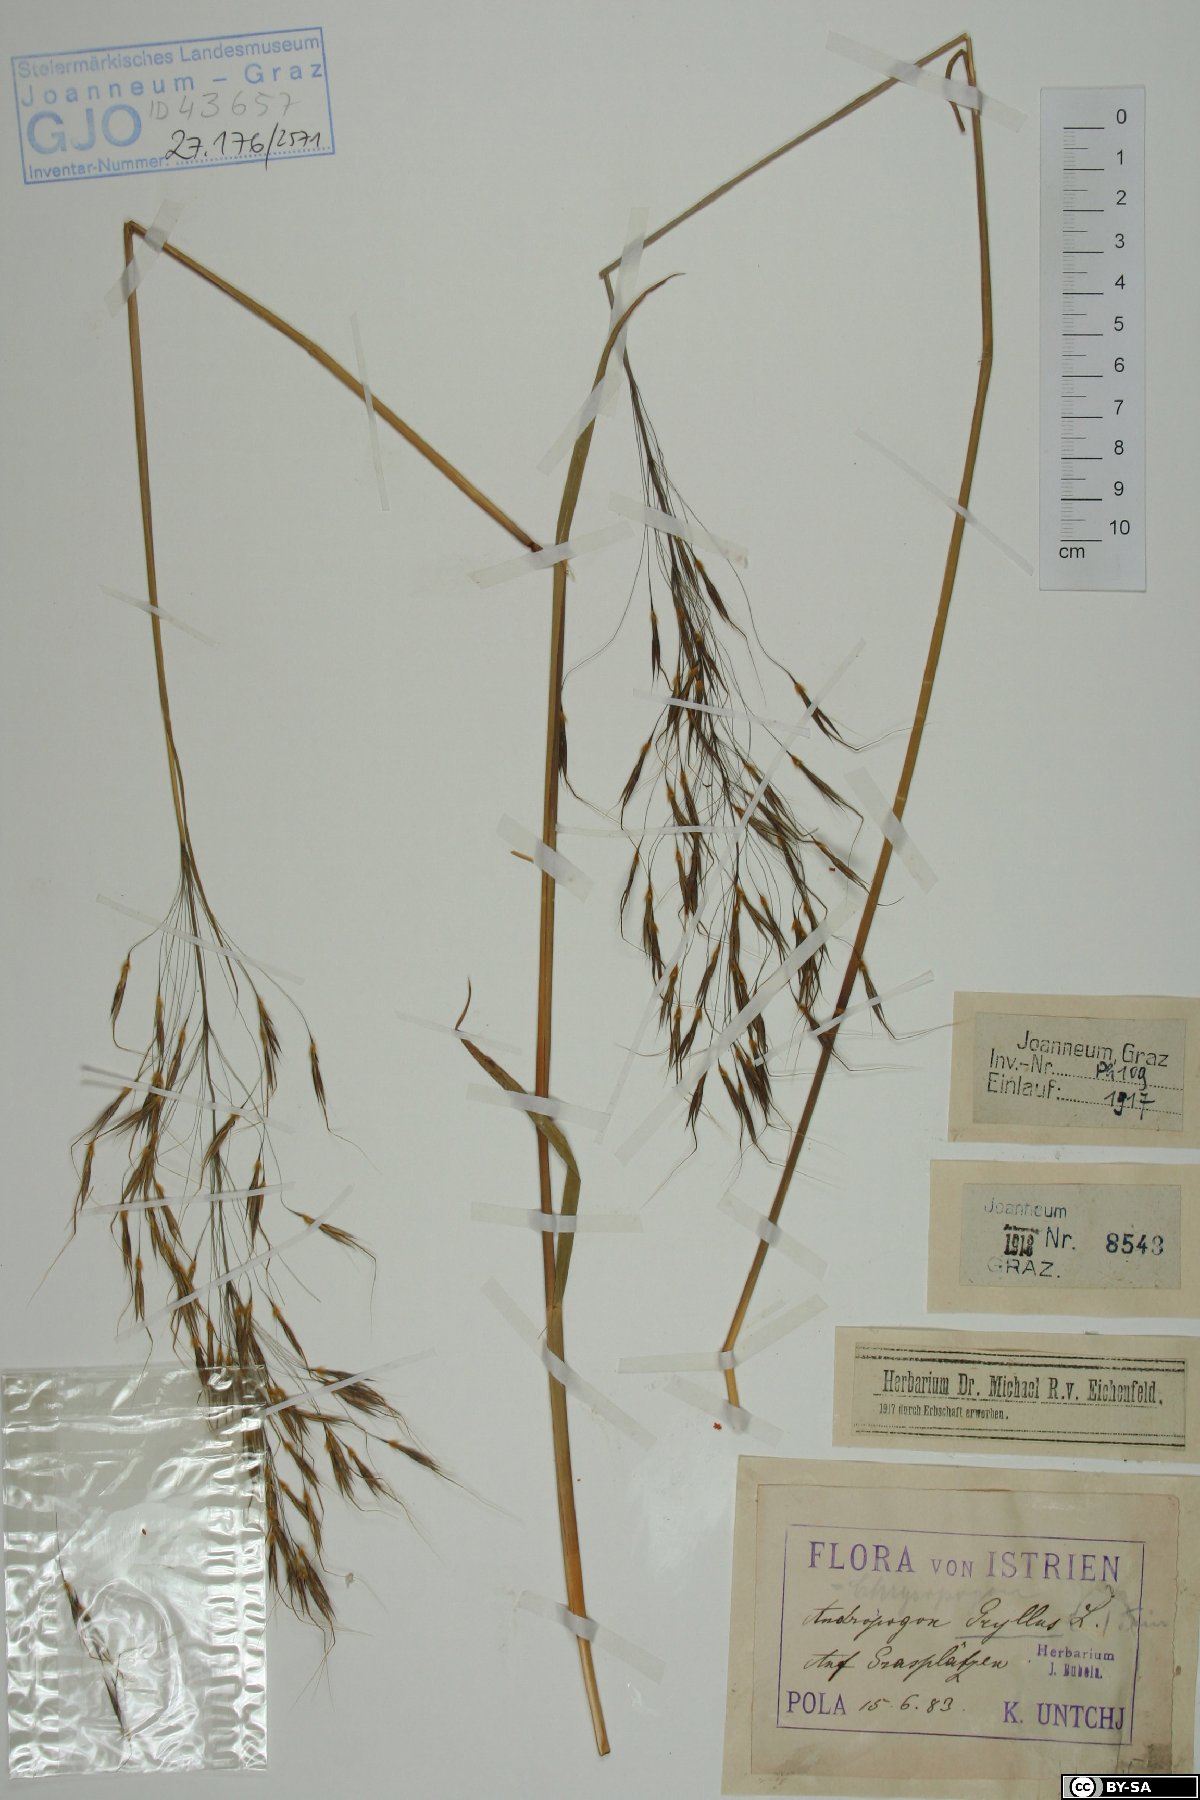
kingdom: Plantae
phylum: Tracheophyta
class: Liliopsida
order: Poales
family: Poaceae
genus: Chrysopogon
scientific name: Chrysopogon gryllus
